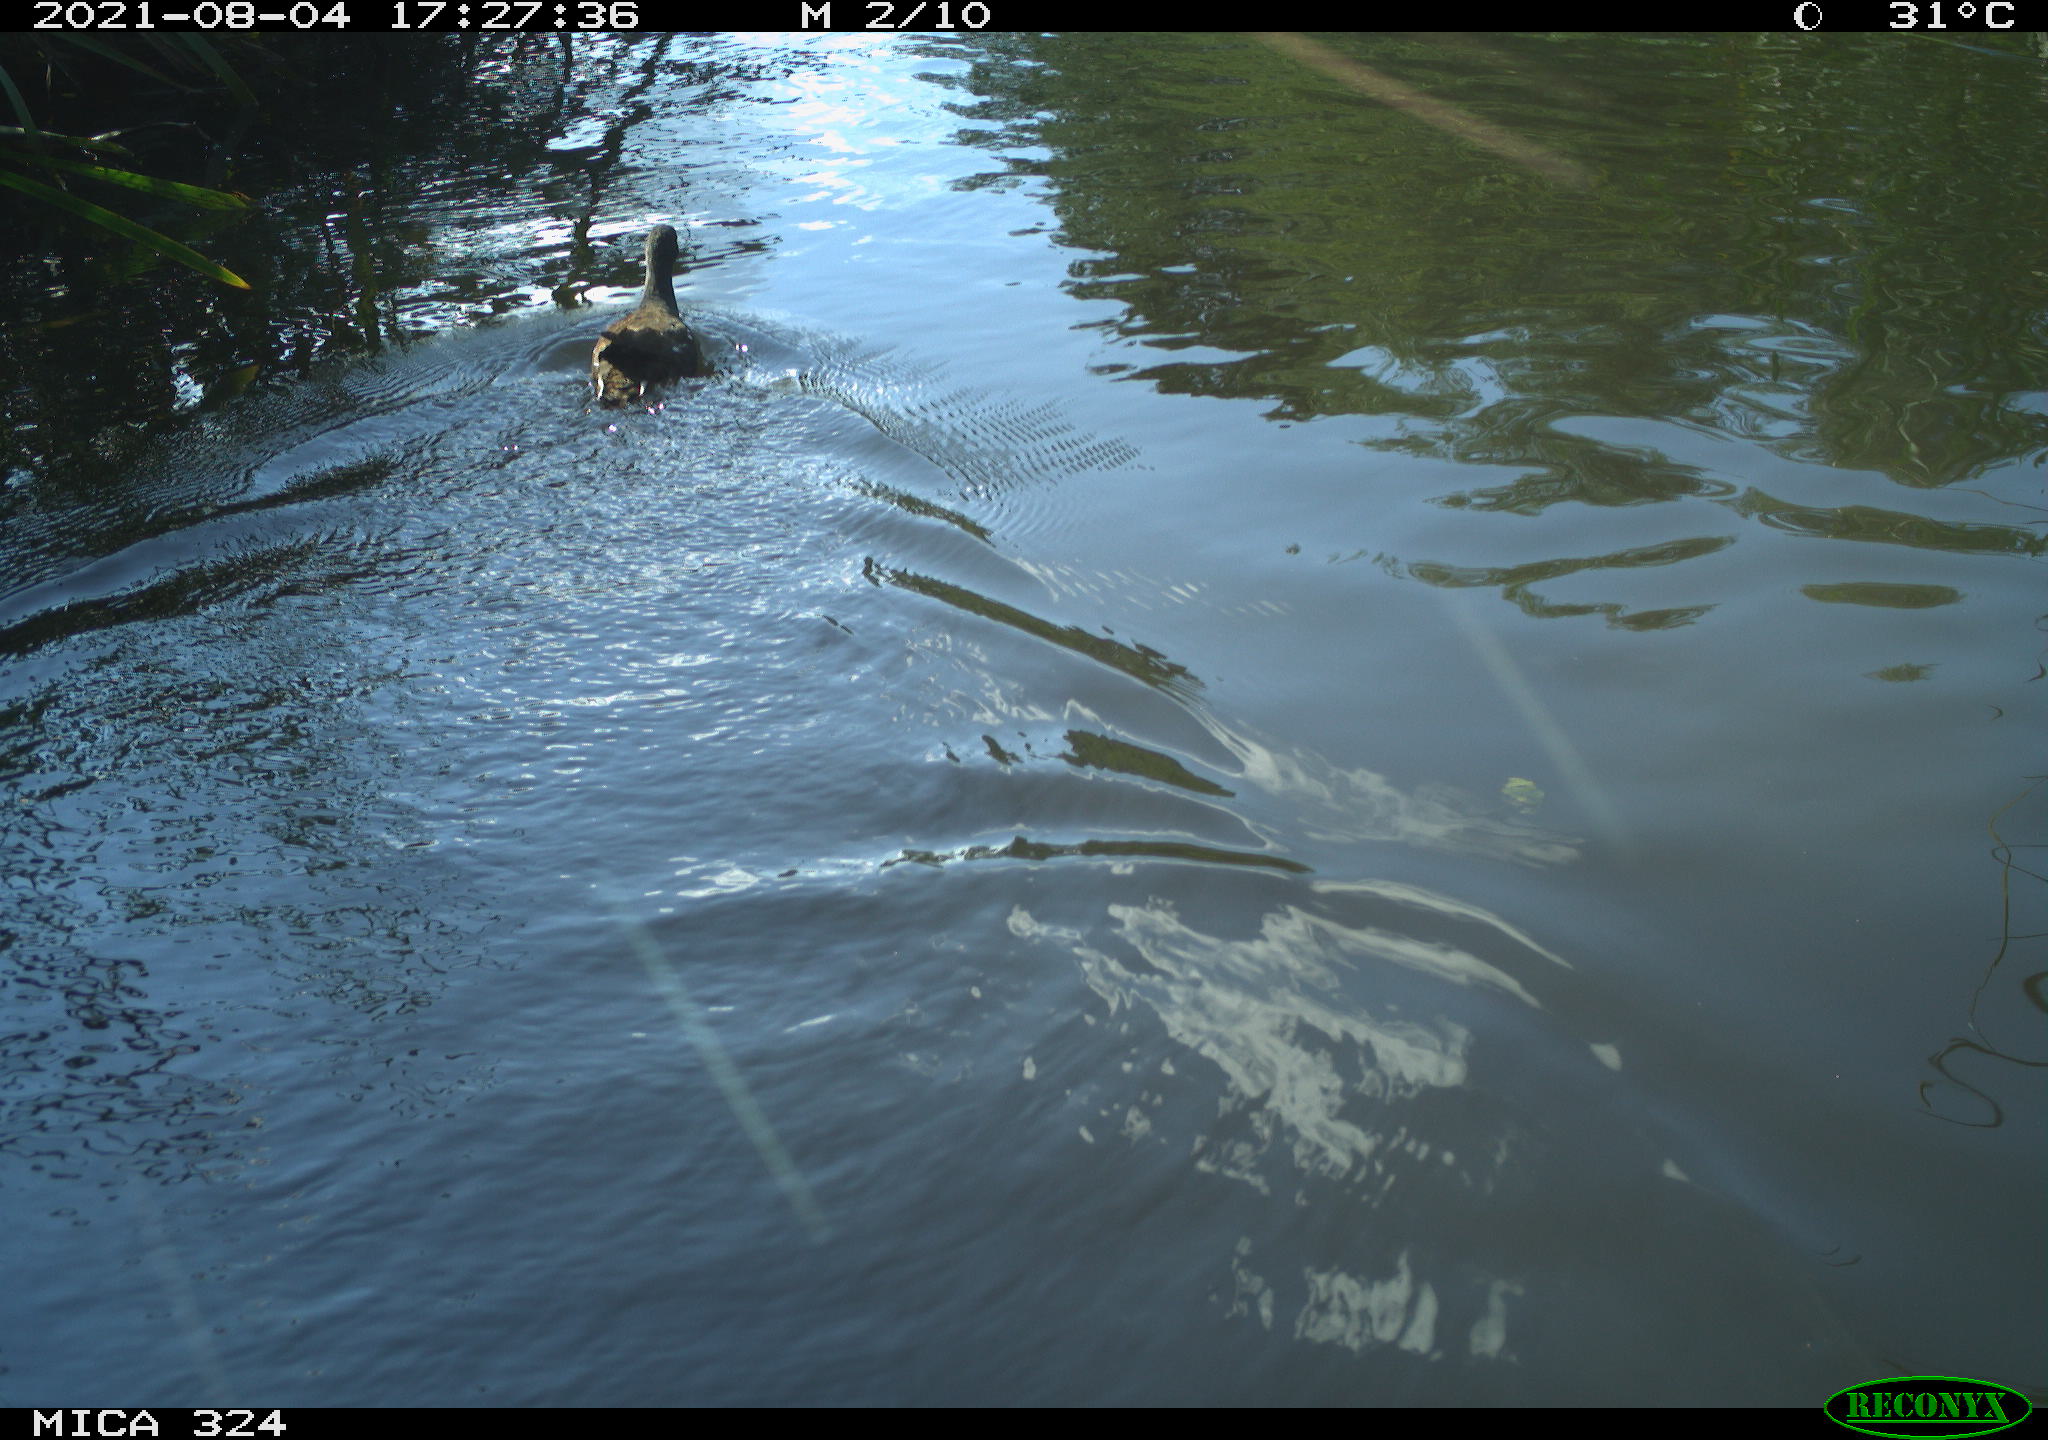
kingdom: Animalia
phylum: Chordata
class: Aves
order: Gruiformes
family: Rallidae
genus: Gallinula
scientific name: Gallinula chloropus
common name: Common moorhen
